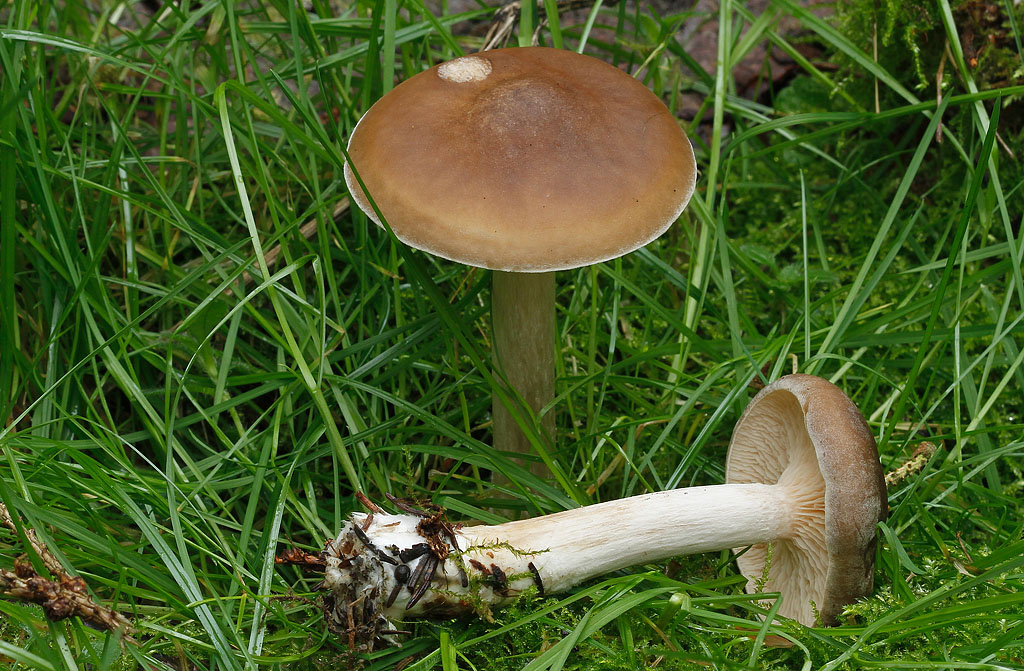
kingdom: Fungi
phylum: Basidiomycota
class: Agaricomycetes
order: Agaricales
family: Tricholomataceae
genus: Melanoleuca
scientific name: Melanoleuca cognata
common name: gyldengrå munkehat
